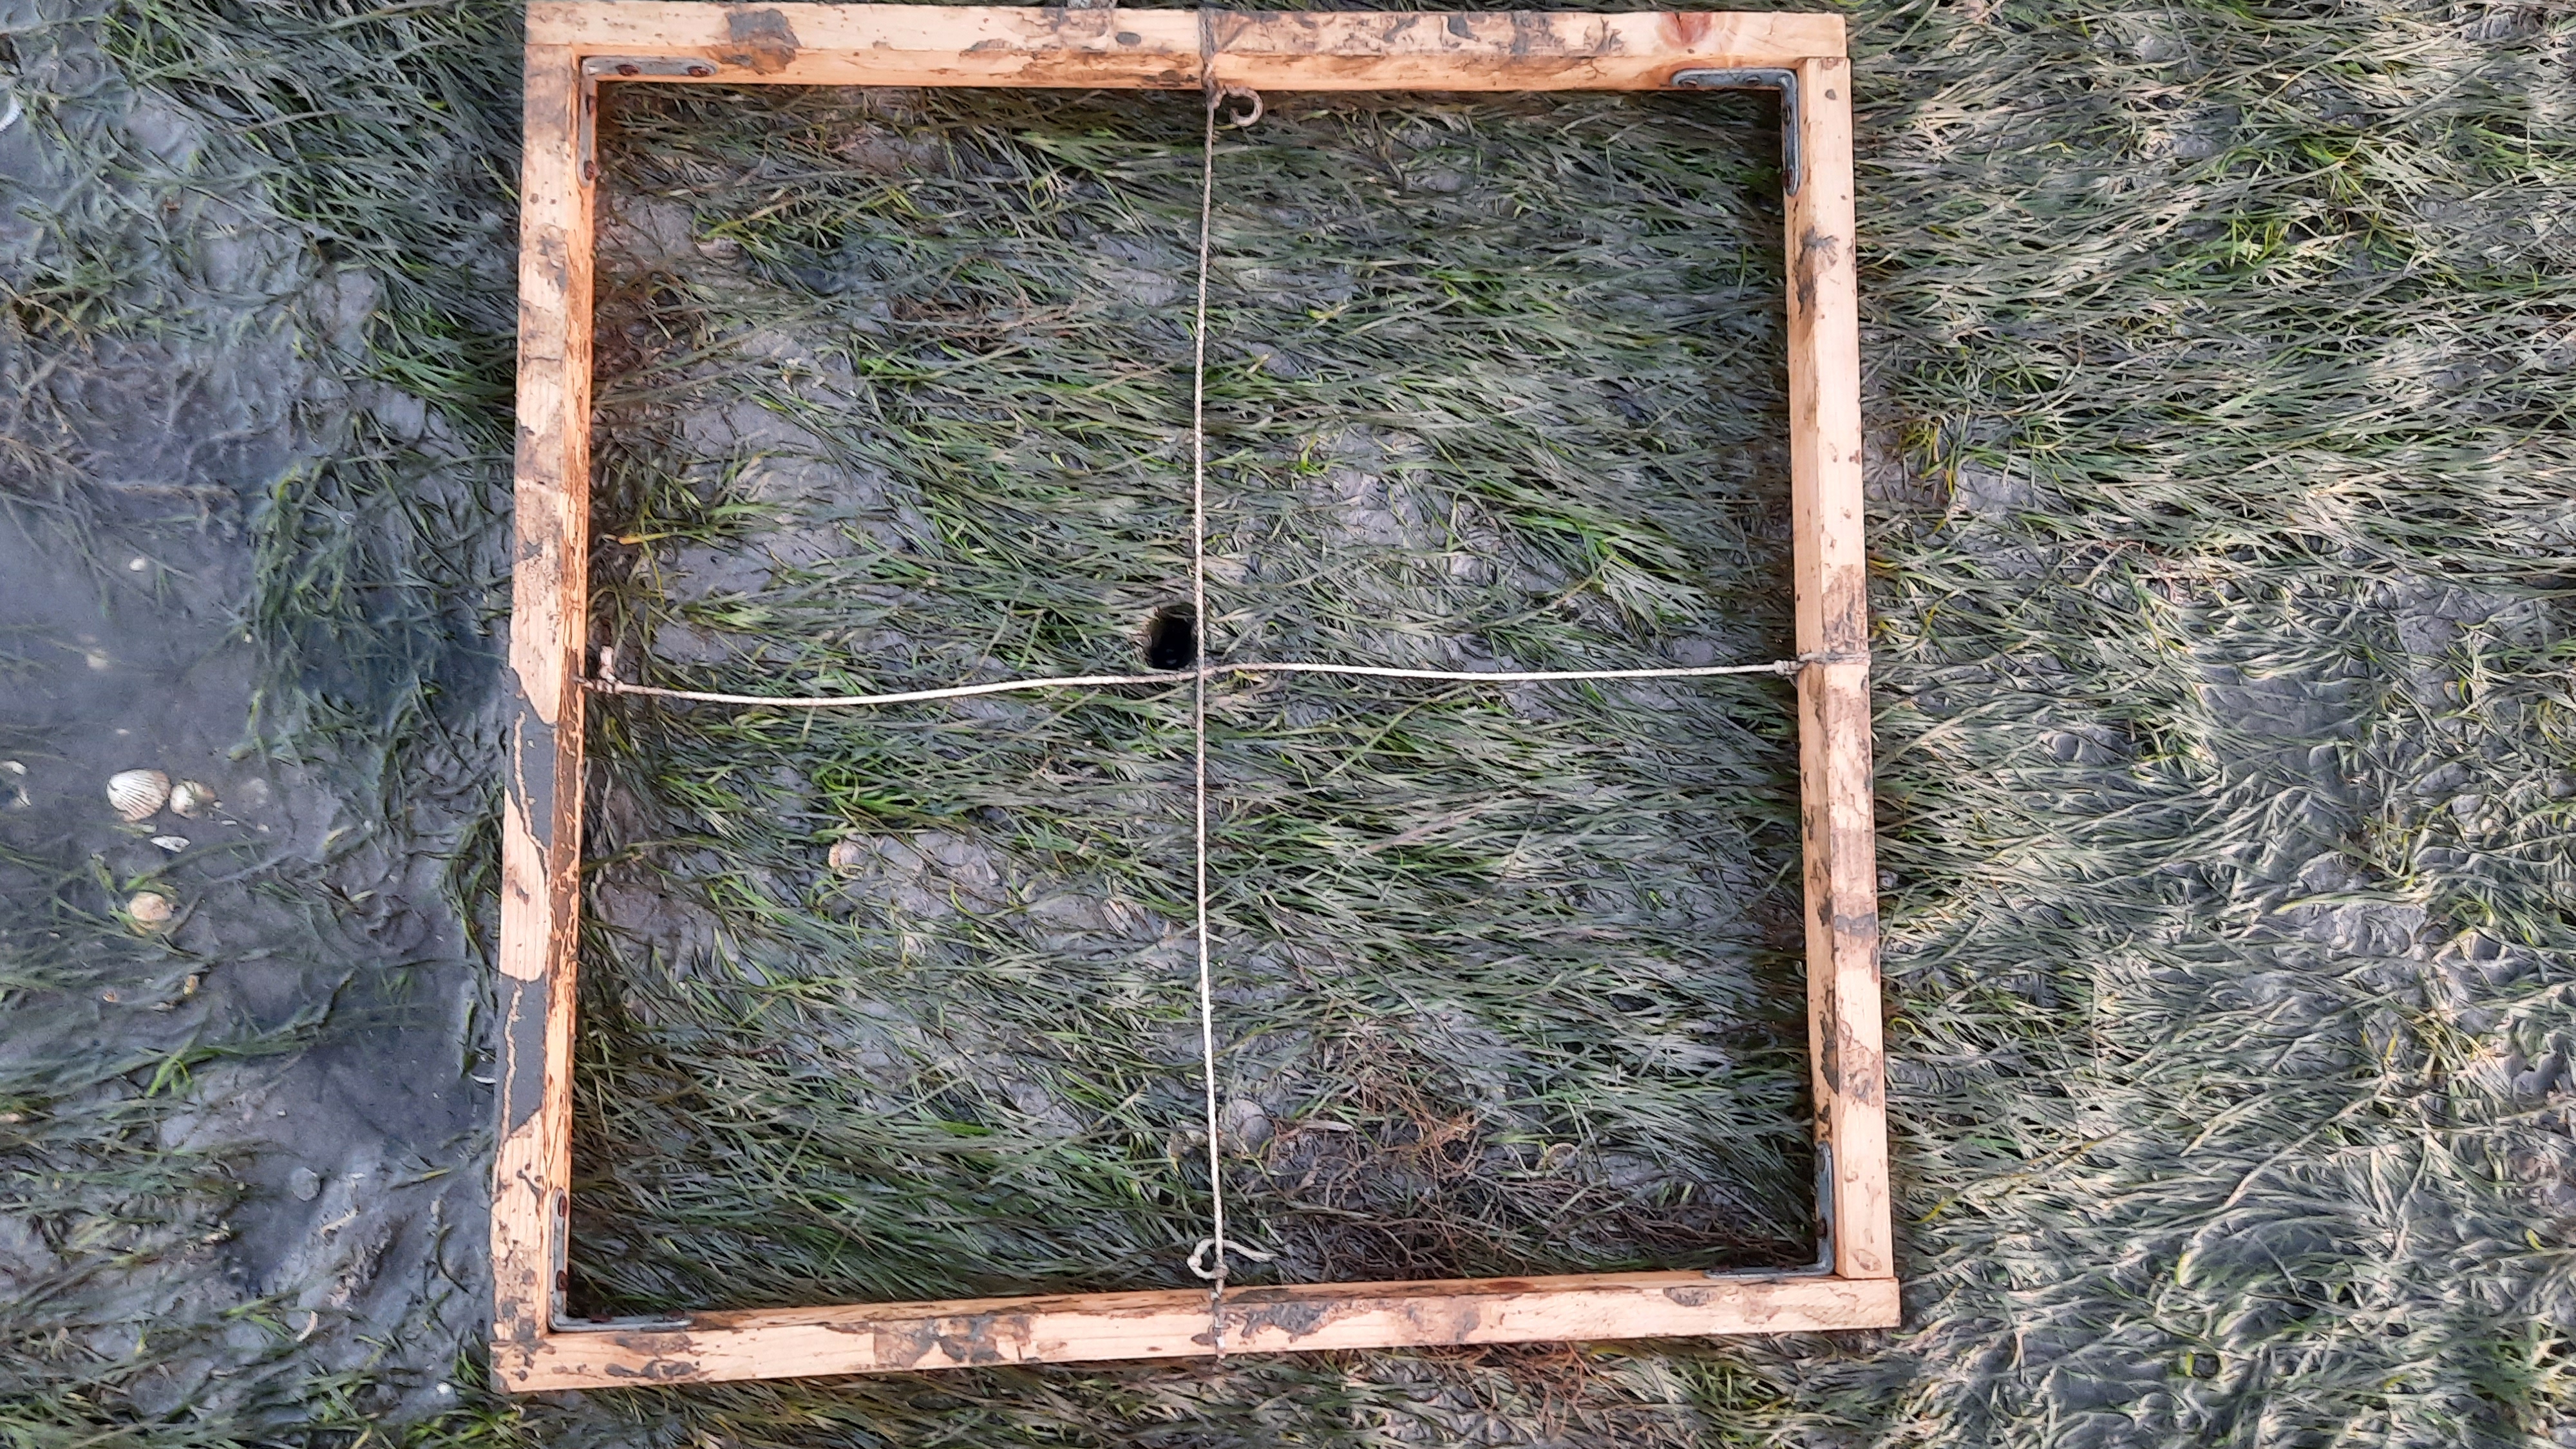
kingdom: Plantae
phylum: Tracheophyta
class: Liliopsida
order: Alismatales
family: Zosteraceae
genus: Zostera
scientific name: Zostera noltii
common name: Dwarf eelgrass
